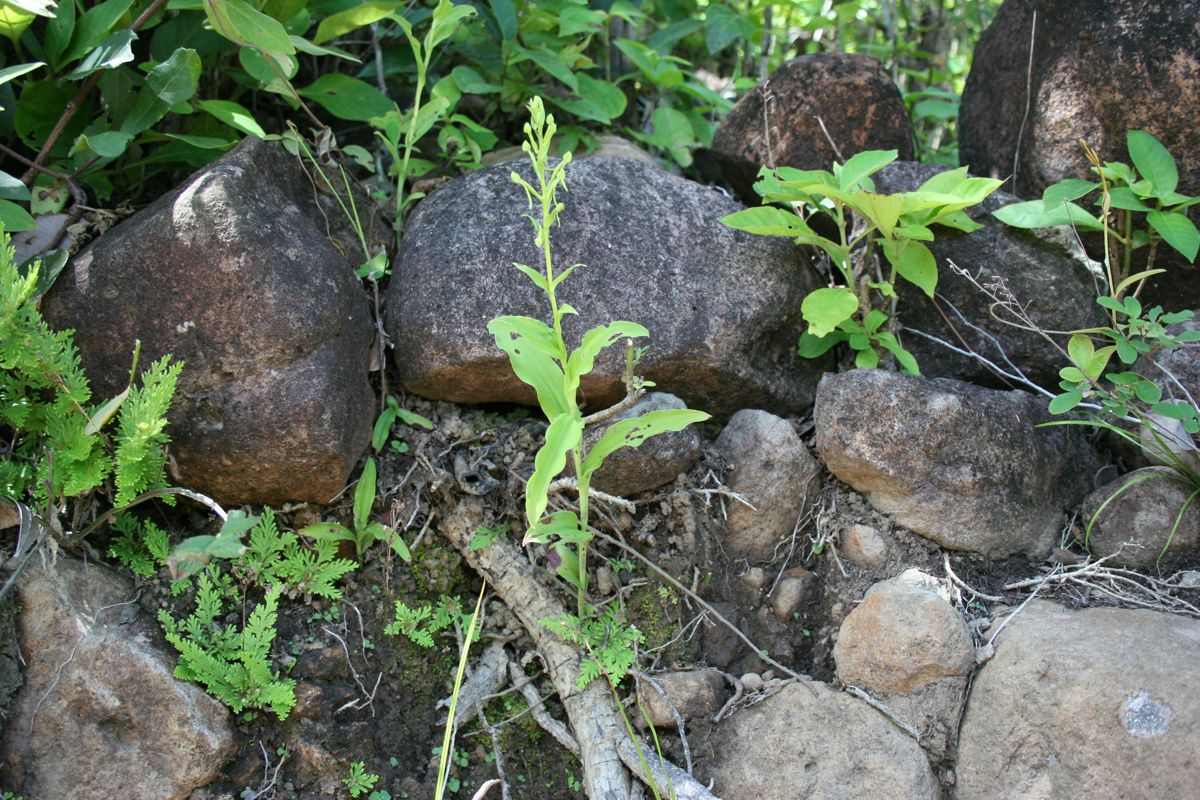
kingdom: Plantae
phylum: Tracheophyta
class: Liliopsida
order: Asparagales
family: Orchidaceae
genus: Habenaria
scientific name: Habenaria
